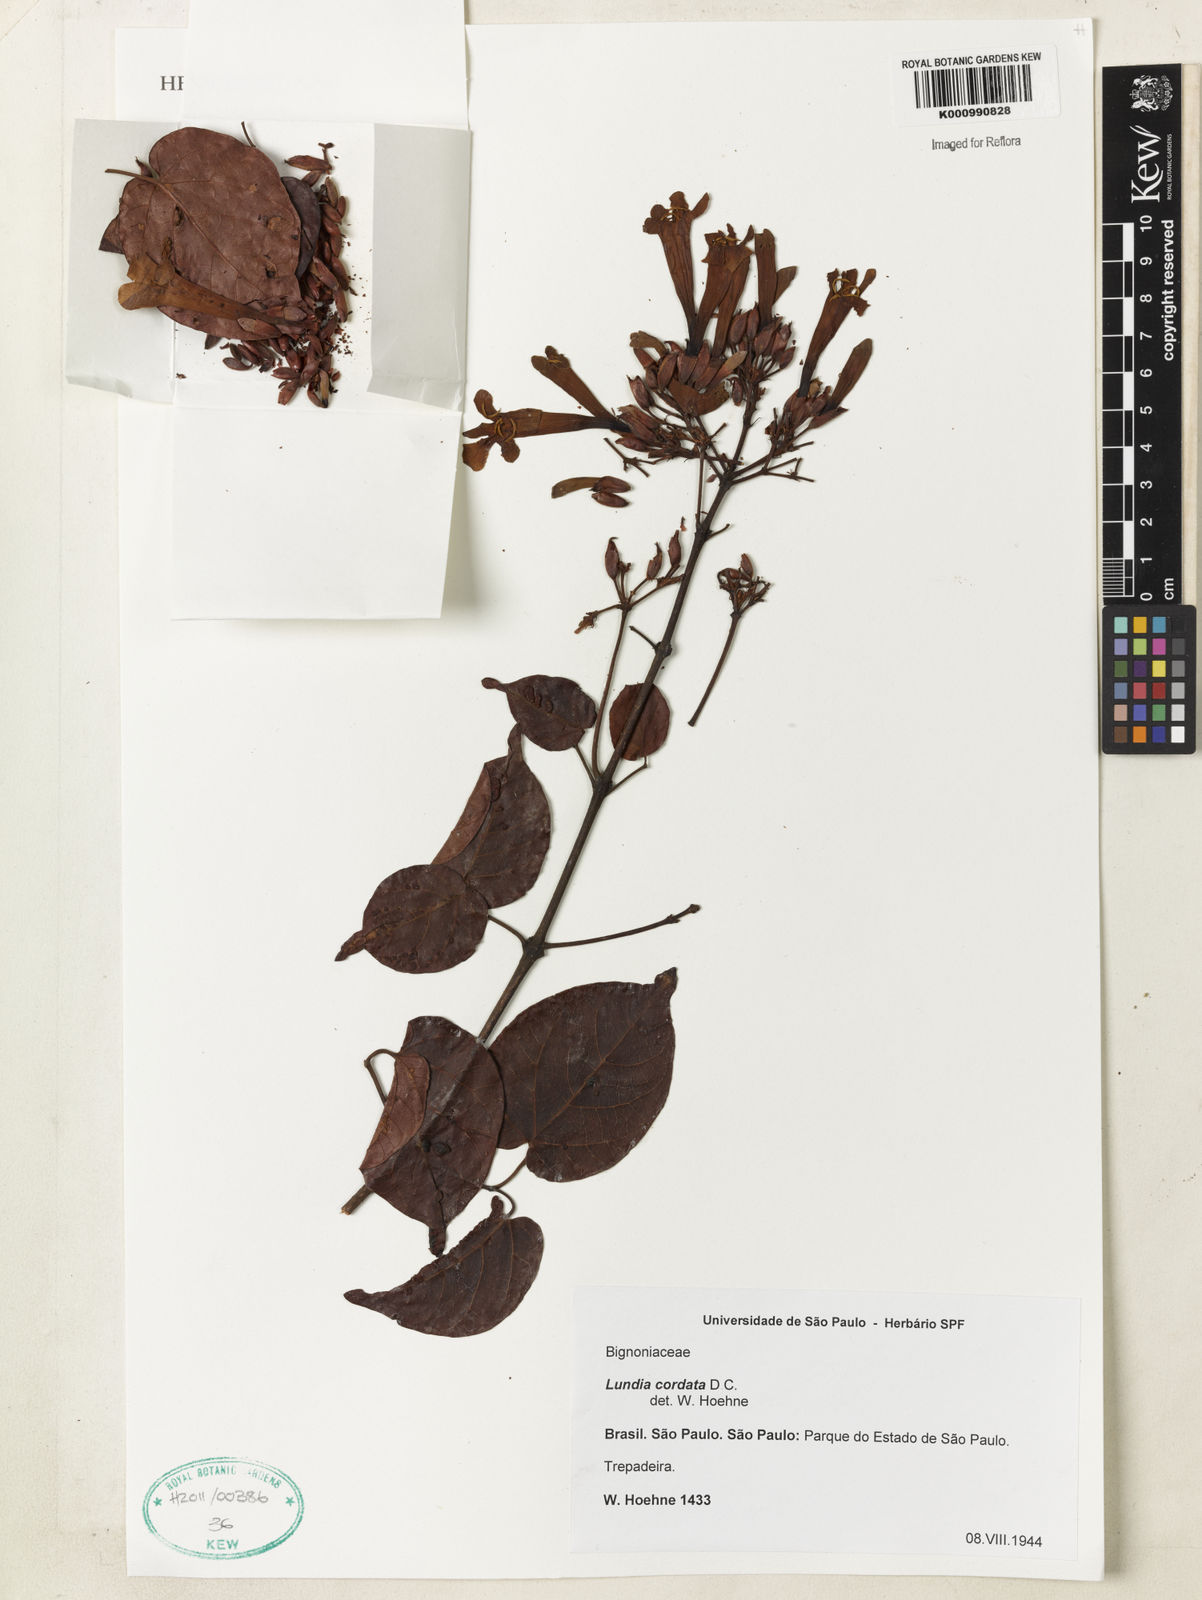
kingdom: Plantae
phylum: Tracheophyta
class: Magnoliopsida
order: Lamiales
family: Bignoniaceae
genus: Lundia
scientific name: Lundia corymbifera
